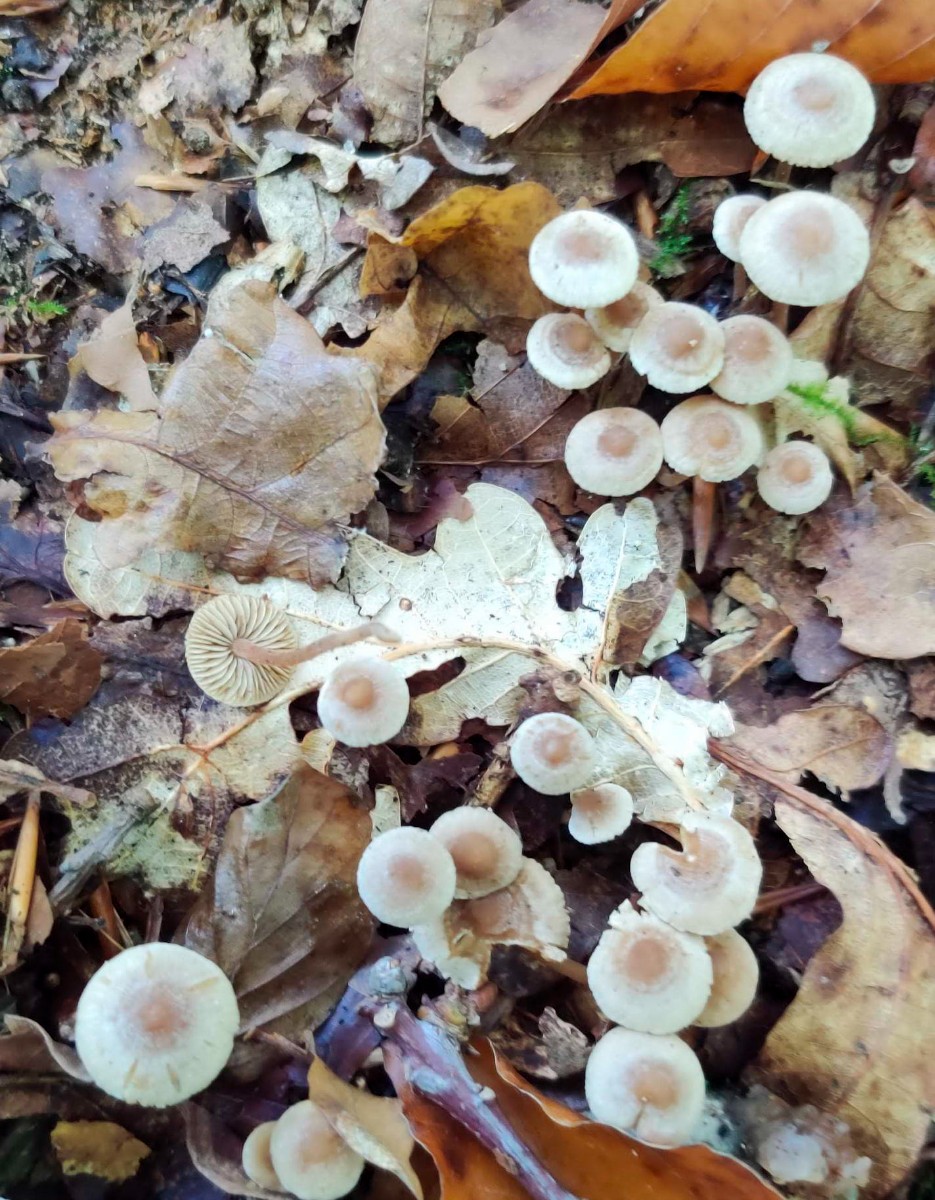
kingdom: Fungi
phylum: Basidiomycota
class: Agaricomycetes
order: Agaricales
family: Inocybaceae
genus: Inocybe
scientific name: Inocybe petiginosa
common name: liden trævlhat
